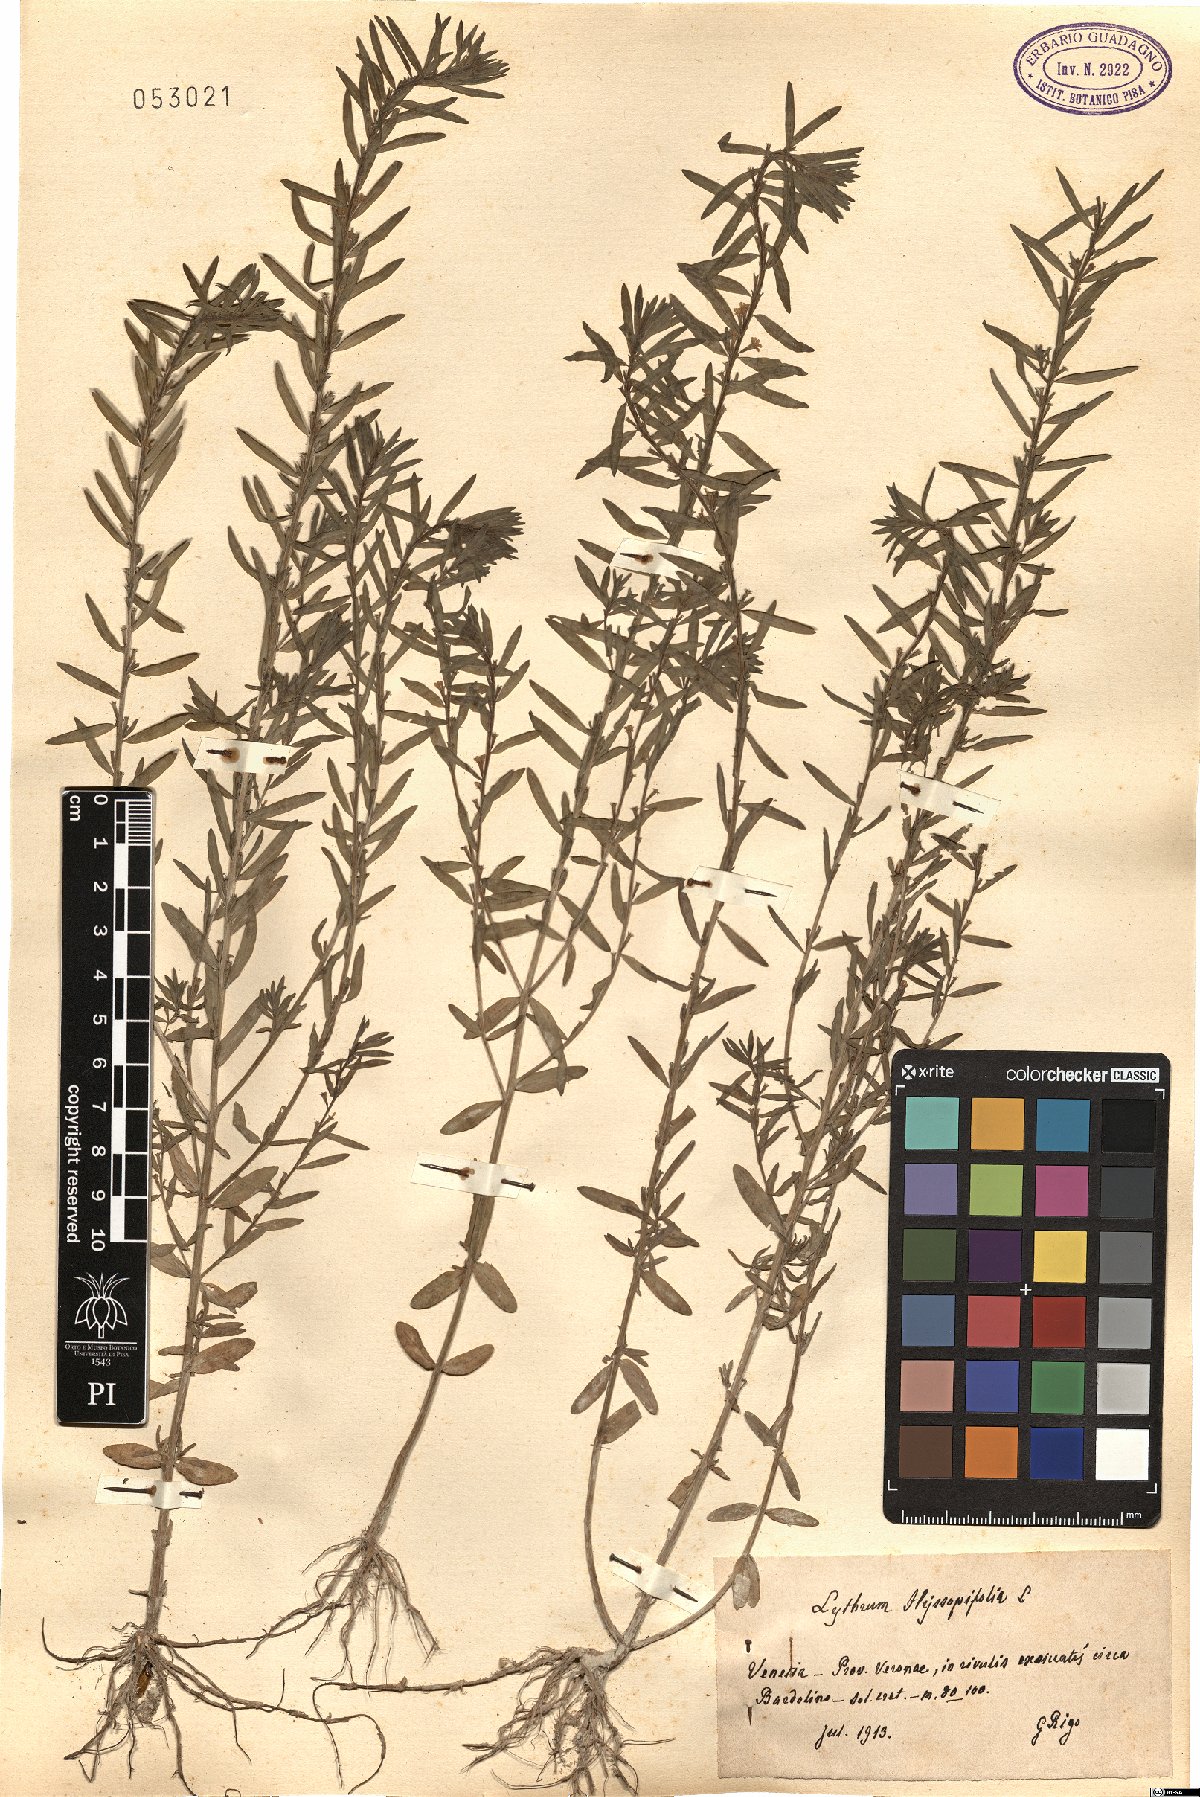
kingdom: Plantae
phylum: Tracheophyta
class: Magnoliopsida
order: Myrtales
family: Lythraceae
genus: Lythrum
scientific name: Lythrum hyssopifolia
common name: Grass-poly
